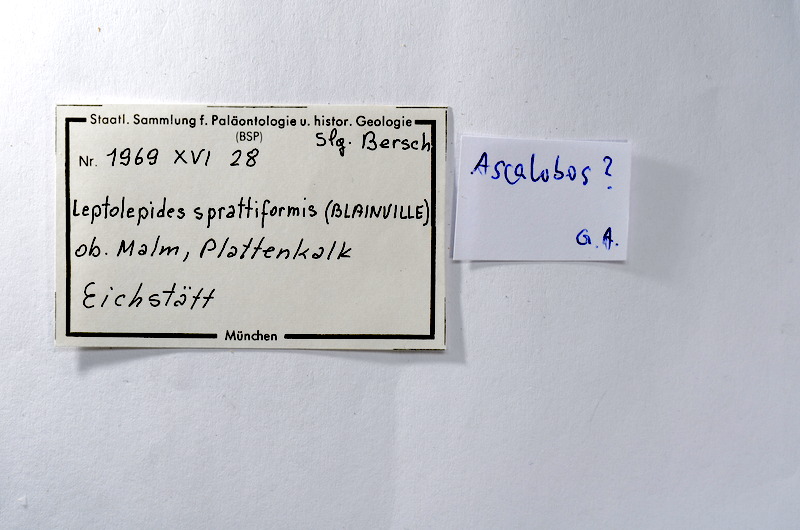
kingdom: Animalia
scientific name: Animalia
